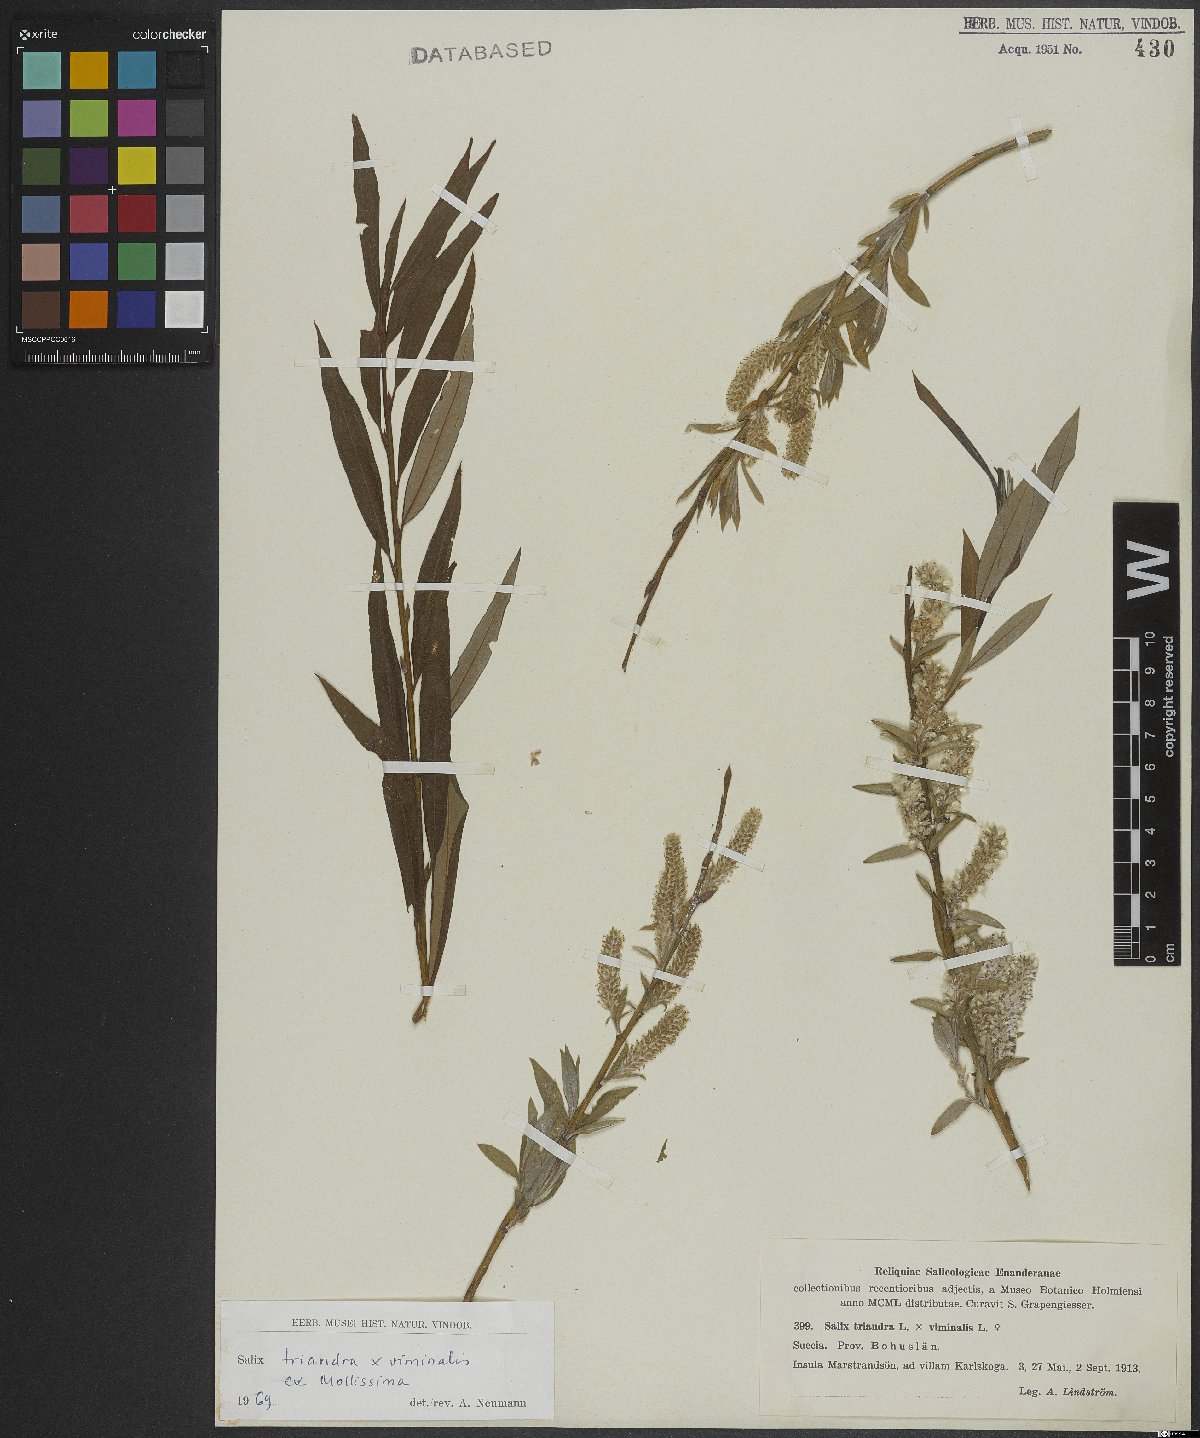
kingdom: Plantae
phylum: Tracheophyta
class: Magnoliopsida
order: Malpighiales
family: Salicaceae
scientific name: Salicaceae
